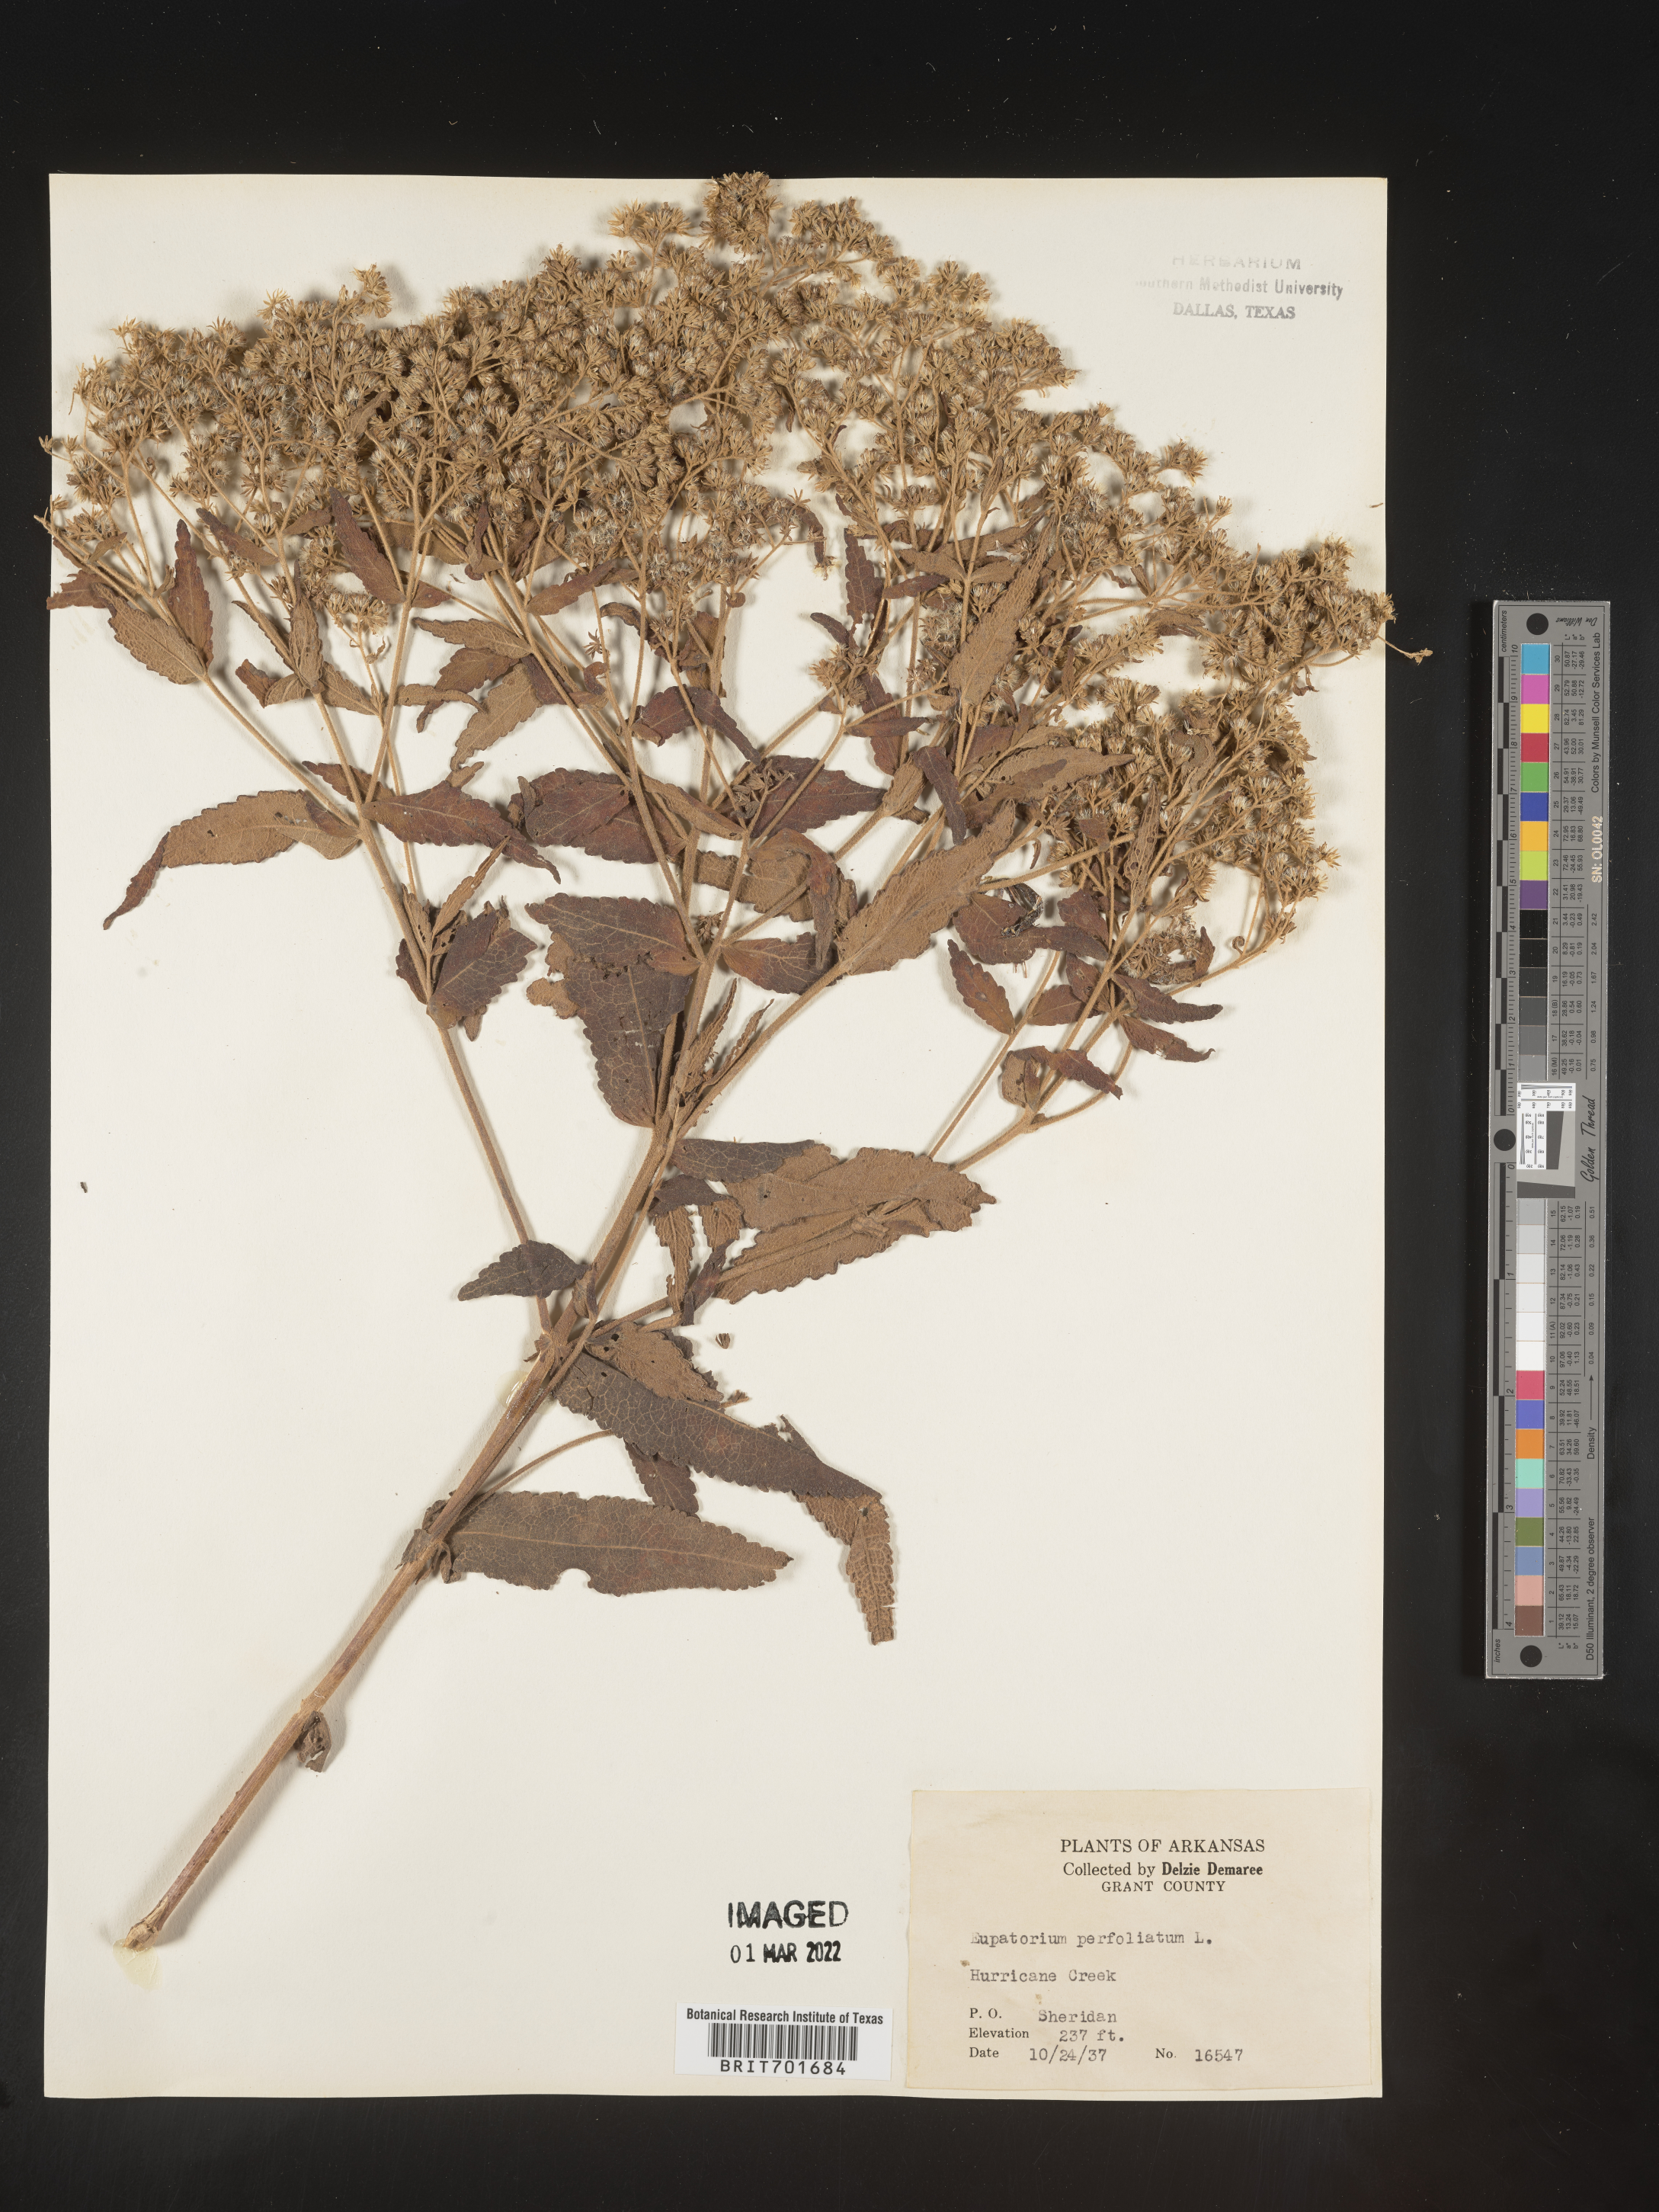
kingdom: Plantae
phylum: Tracheophyta
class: Magnoliopsida
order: Asterales
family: Asteraceae
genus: Eupatorium
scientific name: Eupatorium perfoliatum
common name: Boneset
